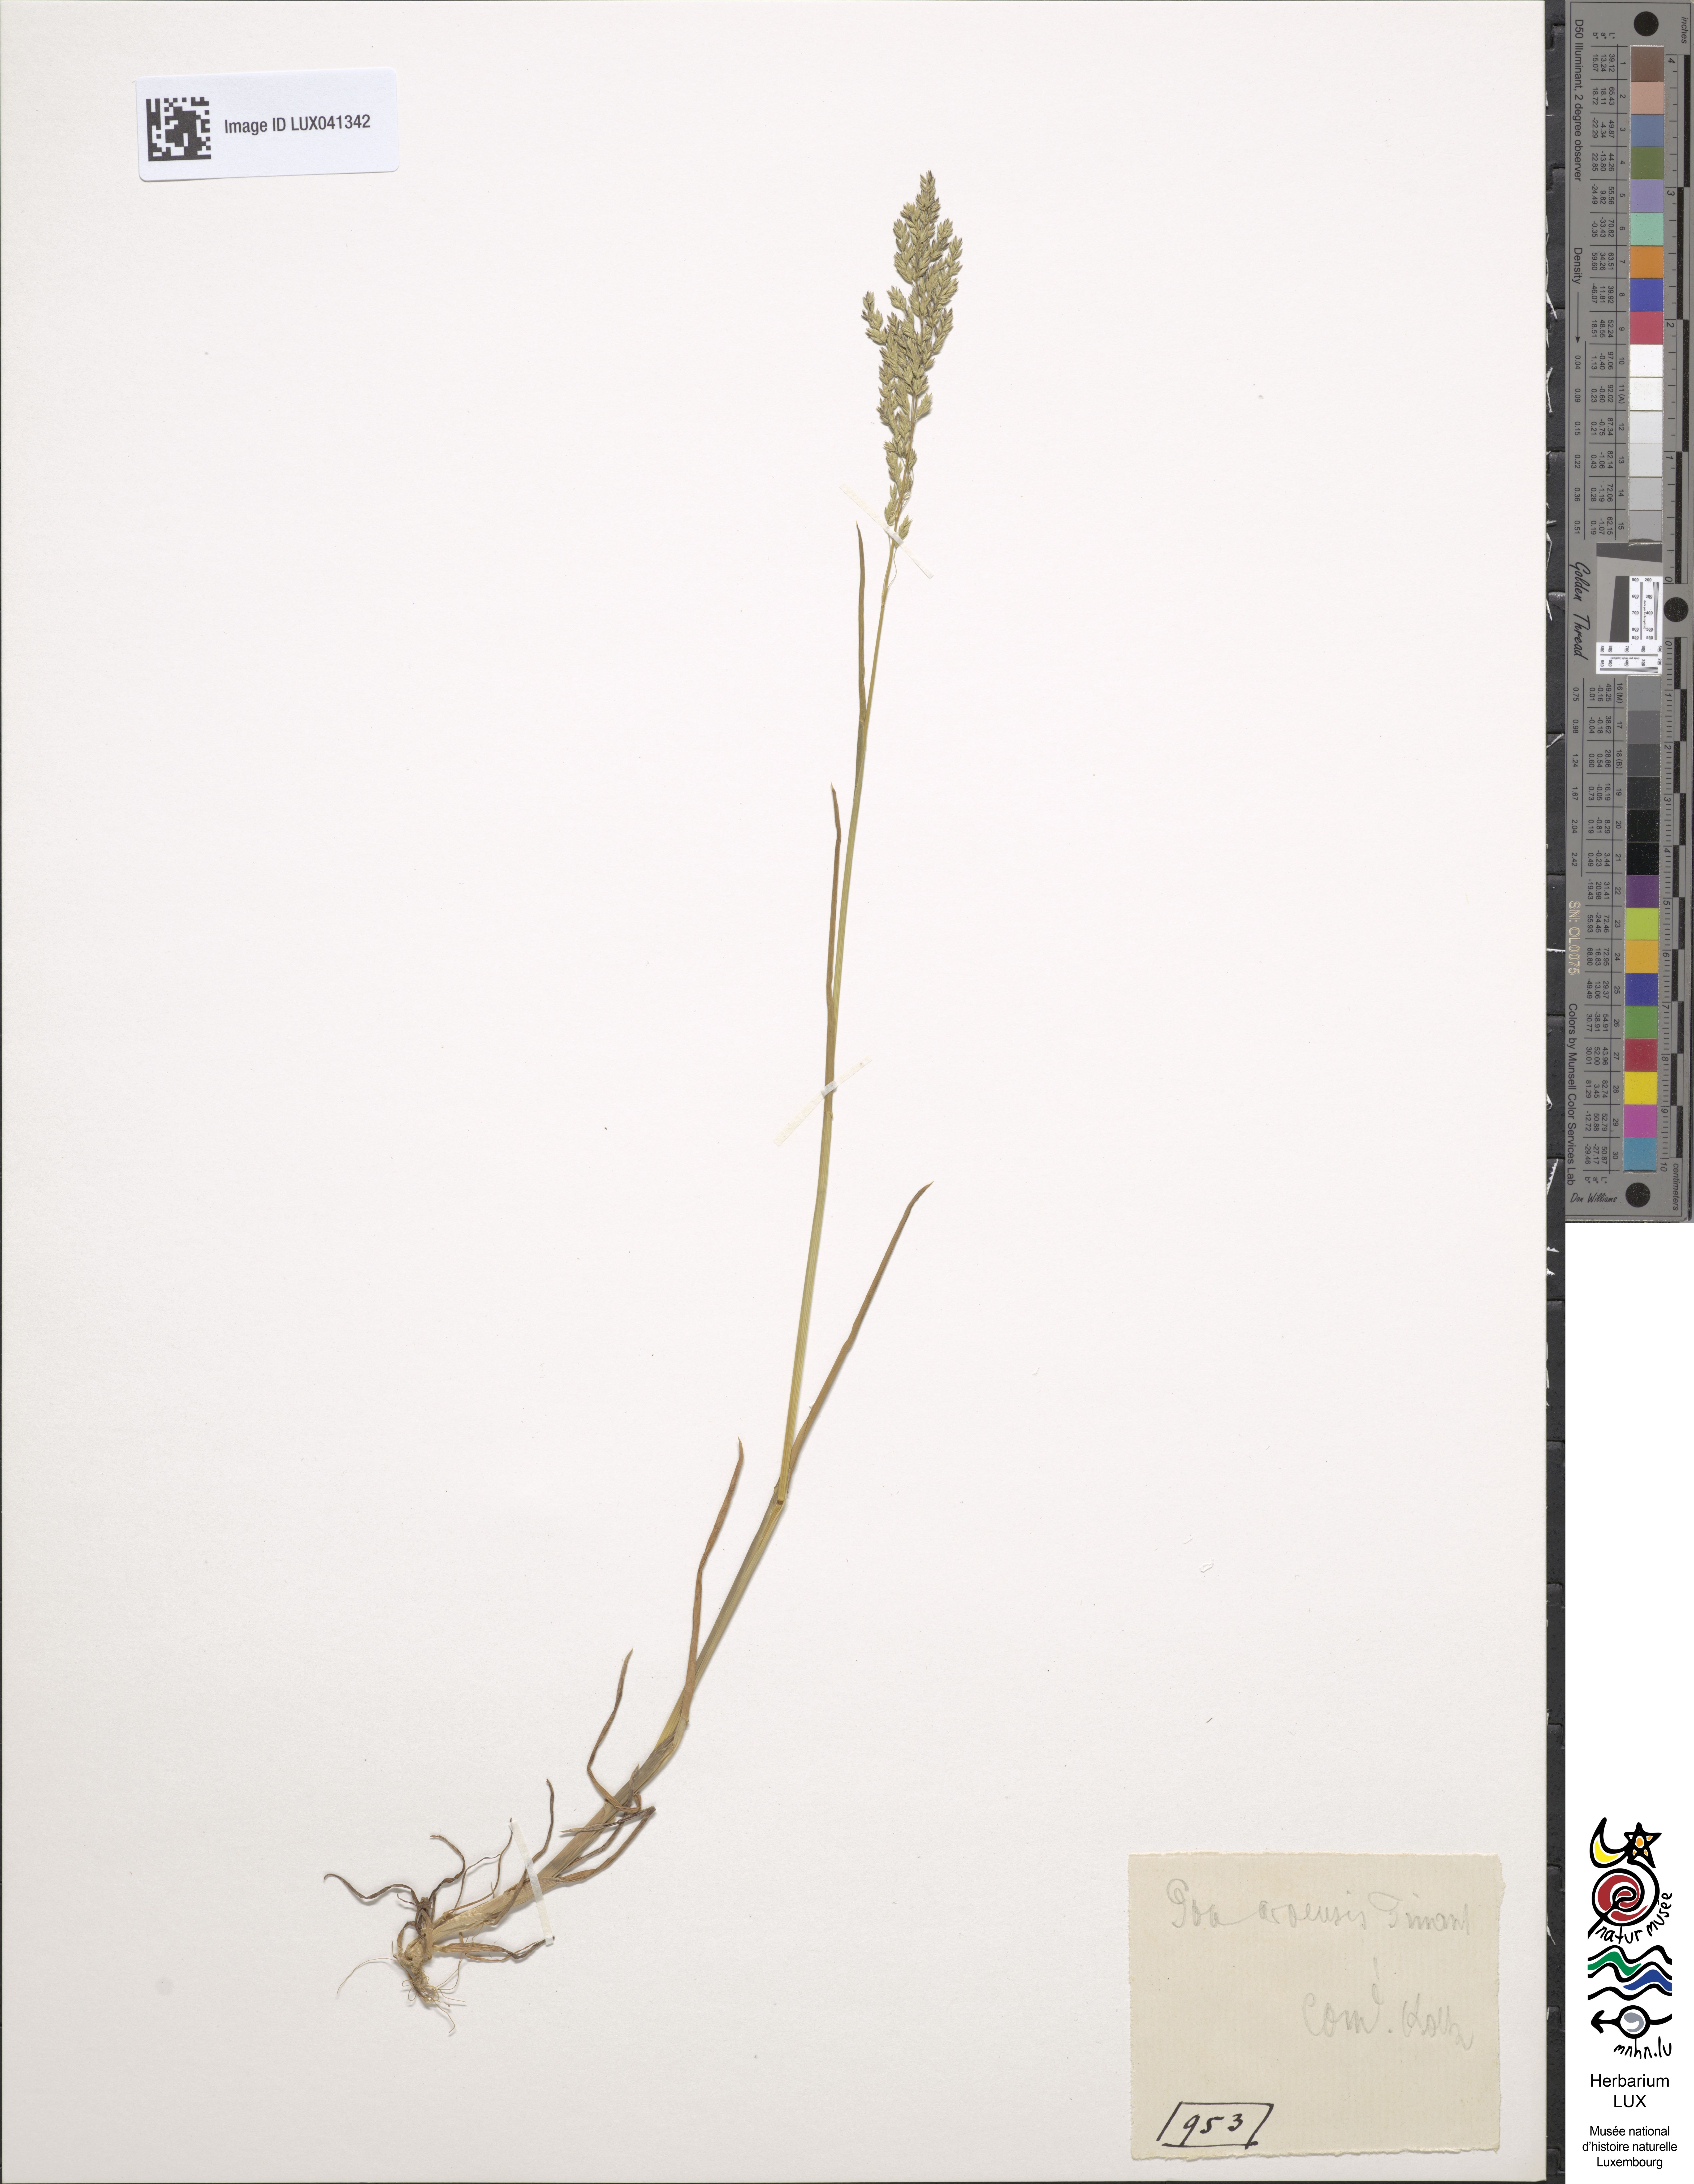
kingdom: Plantae
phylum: Tracheophyta
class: Liliopsida
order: Poales
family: Poaceae
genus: Poa
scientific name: Poa arvensis
